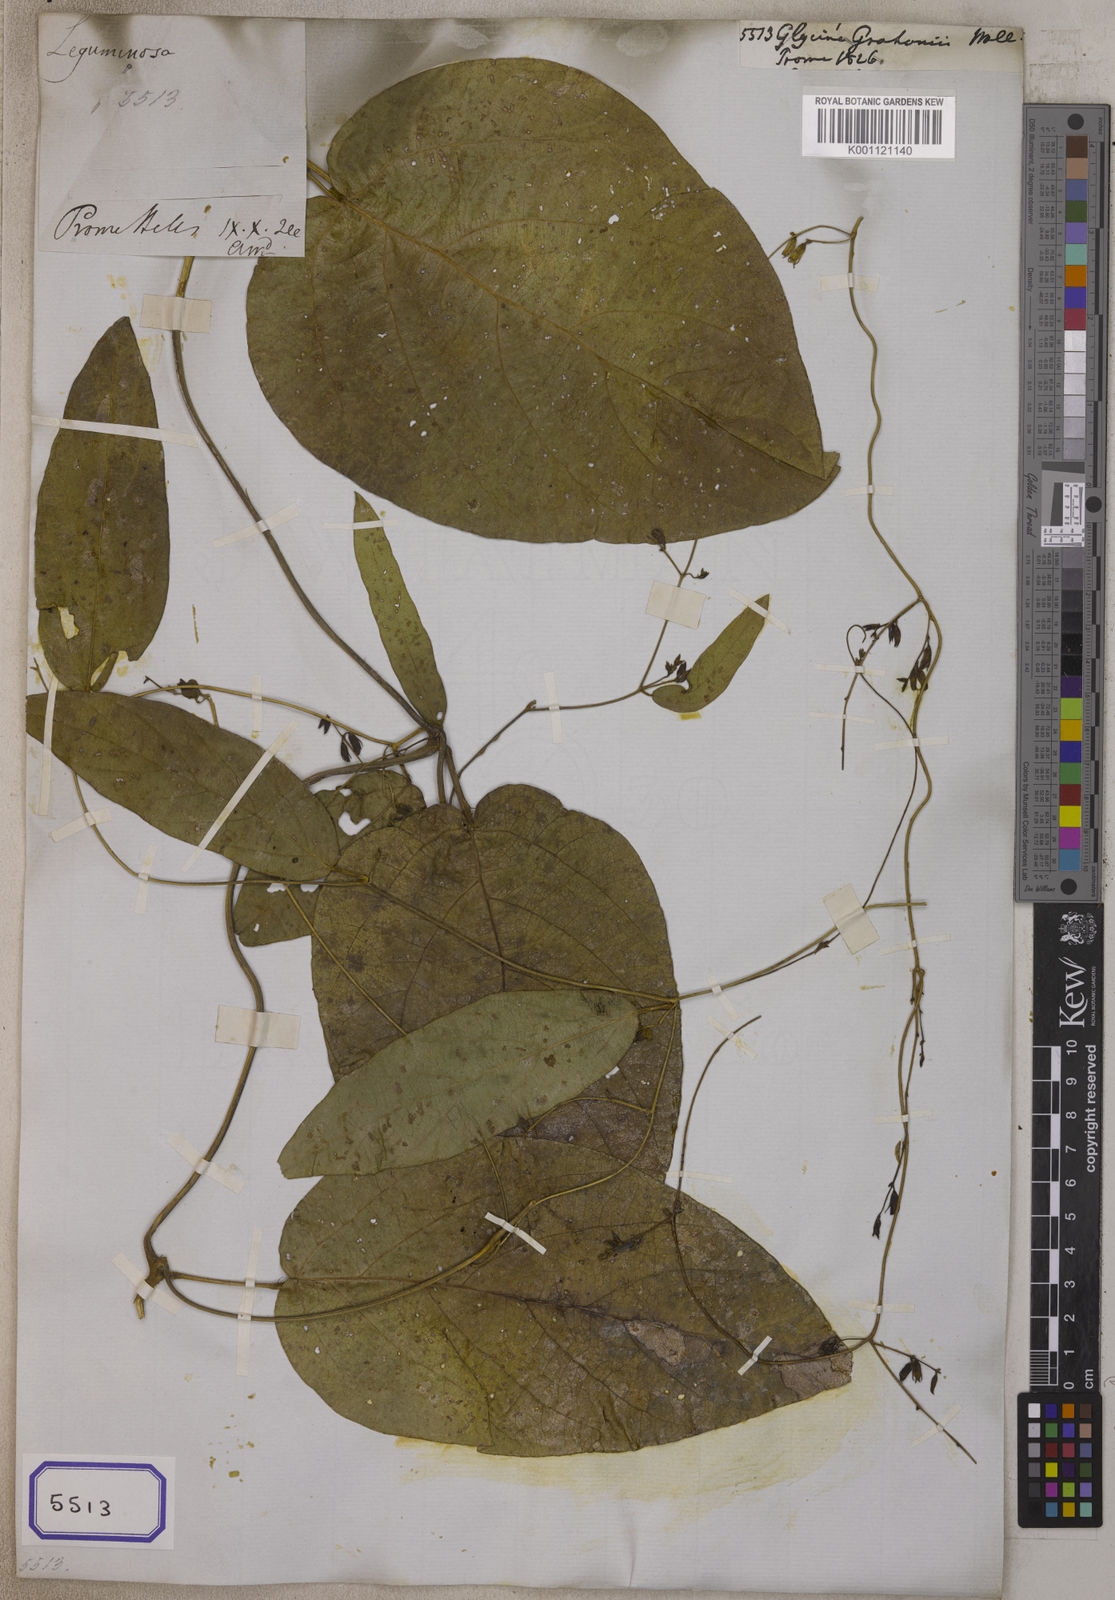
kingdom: Plantae
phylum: Tracheophyta
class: Magnoliopsida
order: Fabales
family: Fabaceae
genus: Glycine
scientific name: Glycine
